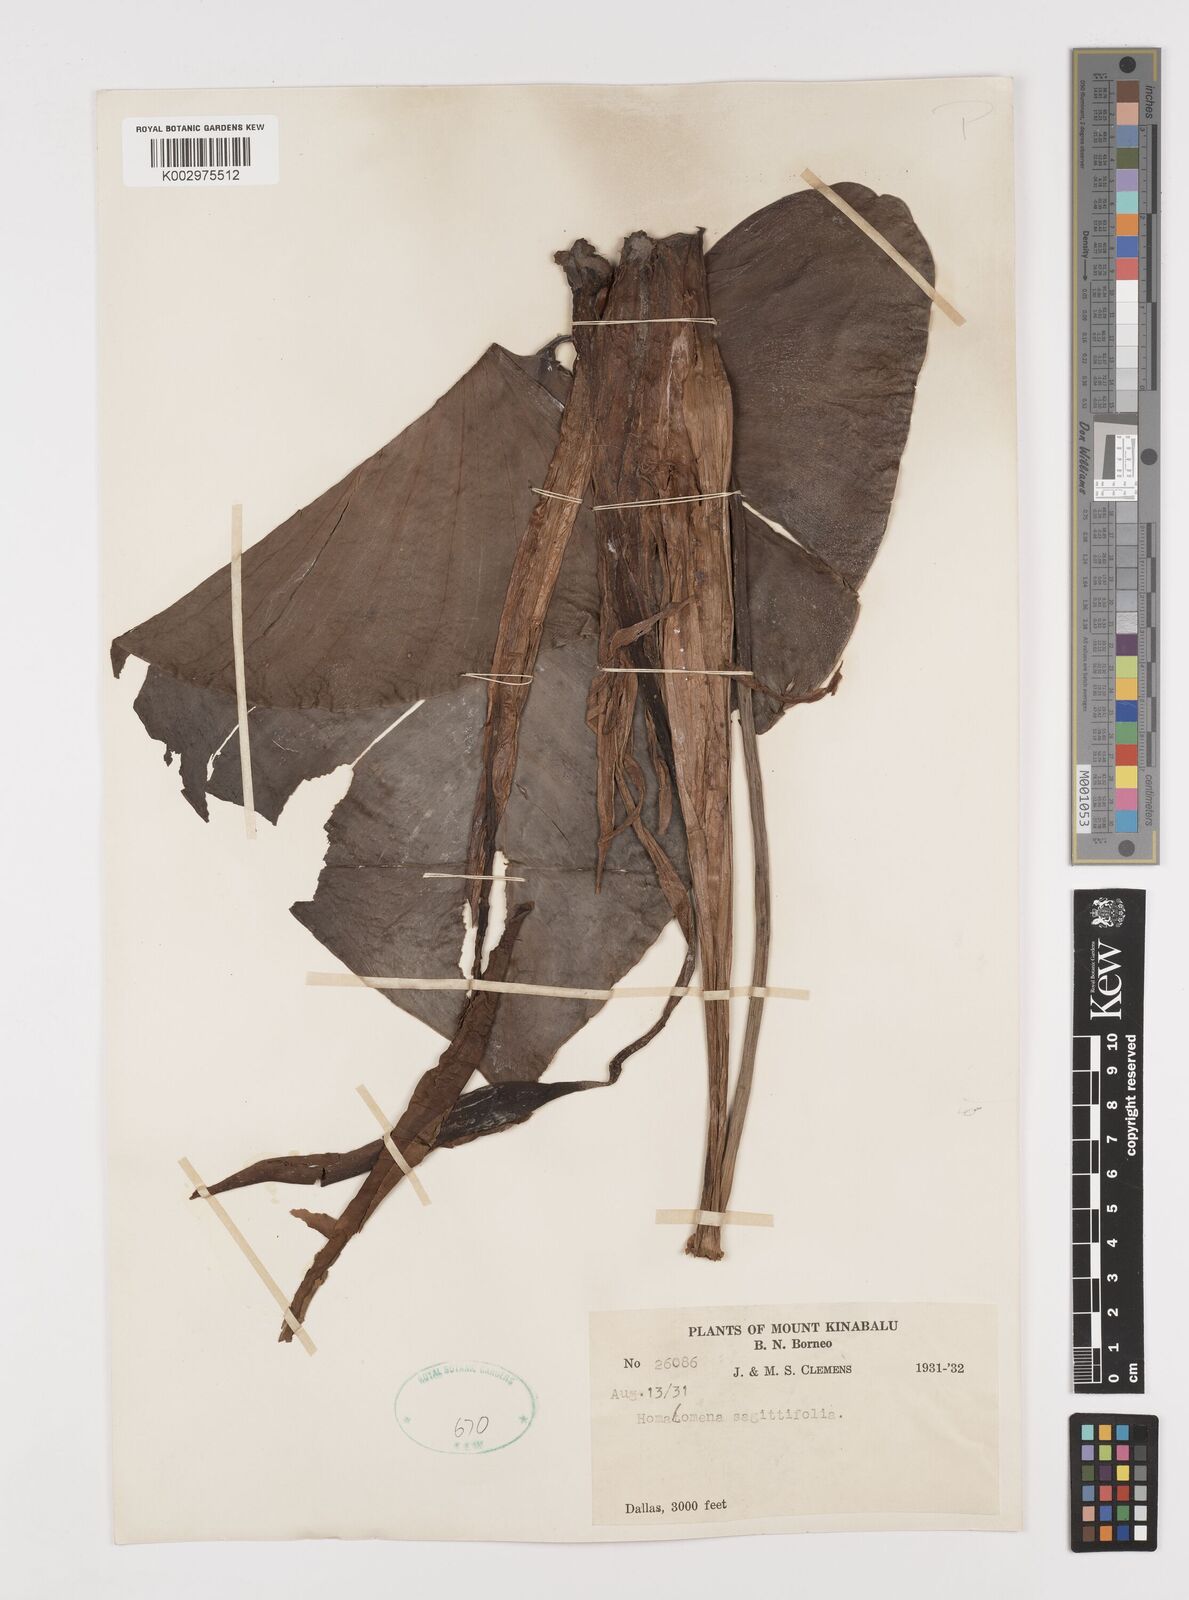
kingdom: Plantae
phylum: Tracheophyta
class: Liliopsida
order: Alismatales
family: Araceae
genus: Homalomena
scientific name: Homalomena rostrata
